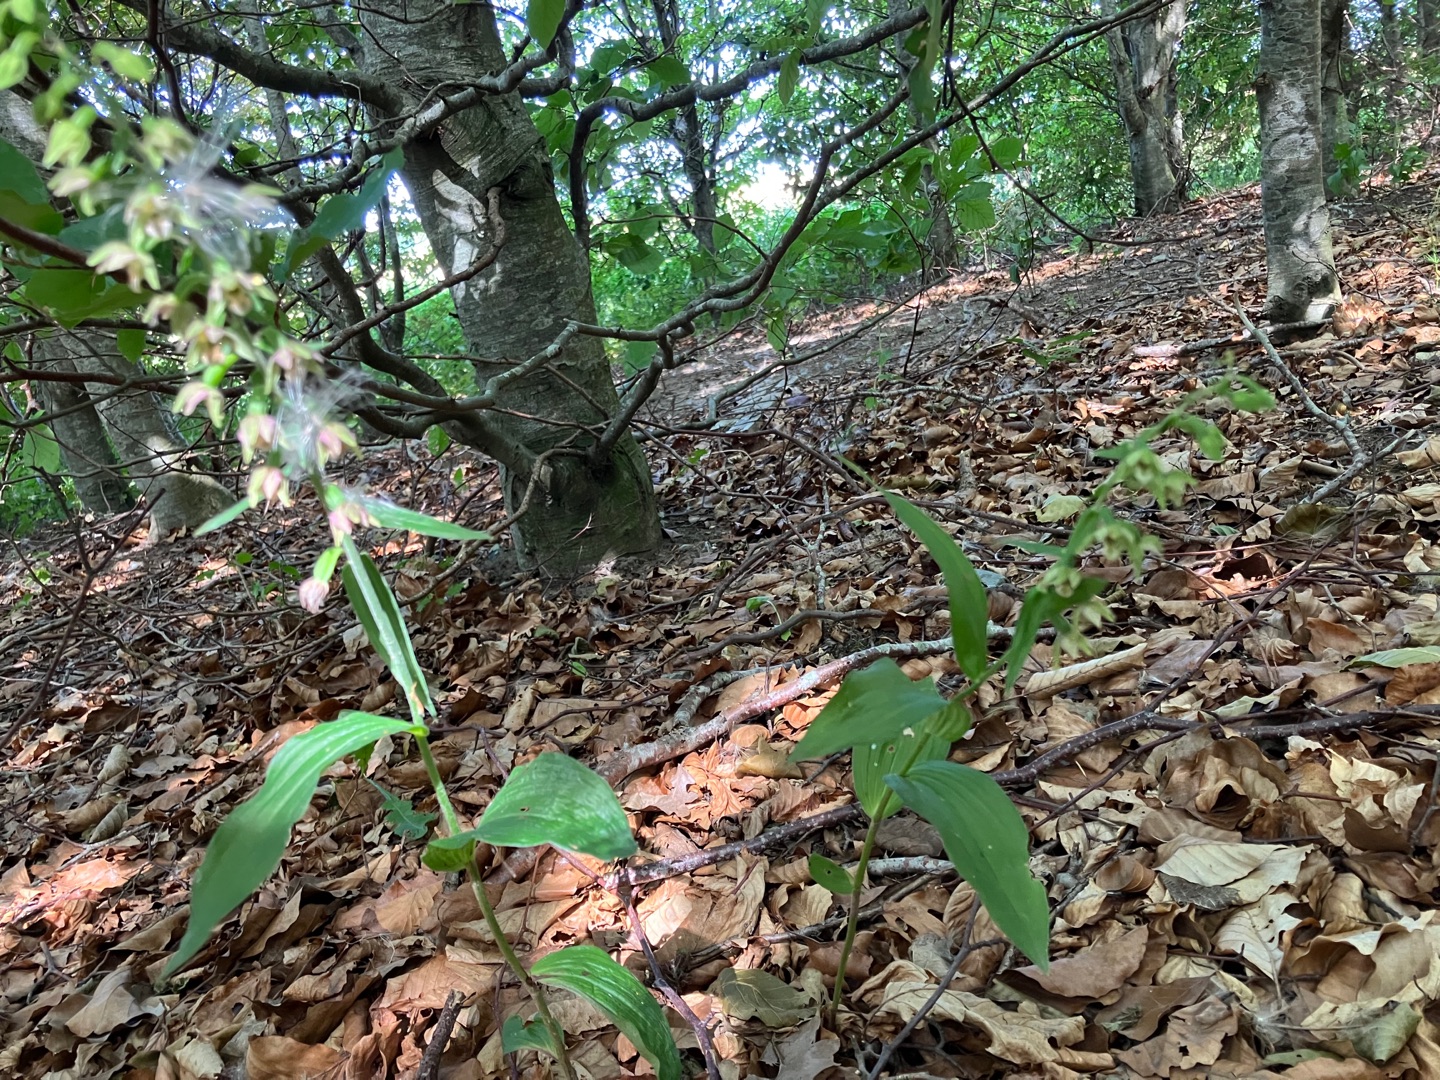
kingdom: Plantae
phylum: Tracheophyta
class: Liliopsida
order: Asparagales
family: Orchidaceae
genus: Epipactis
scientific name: Epipactis helleborine
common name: Skov-hullæbe
